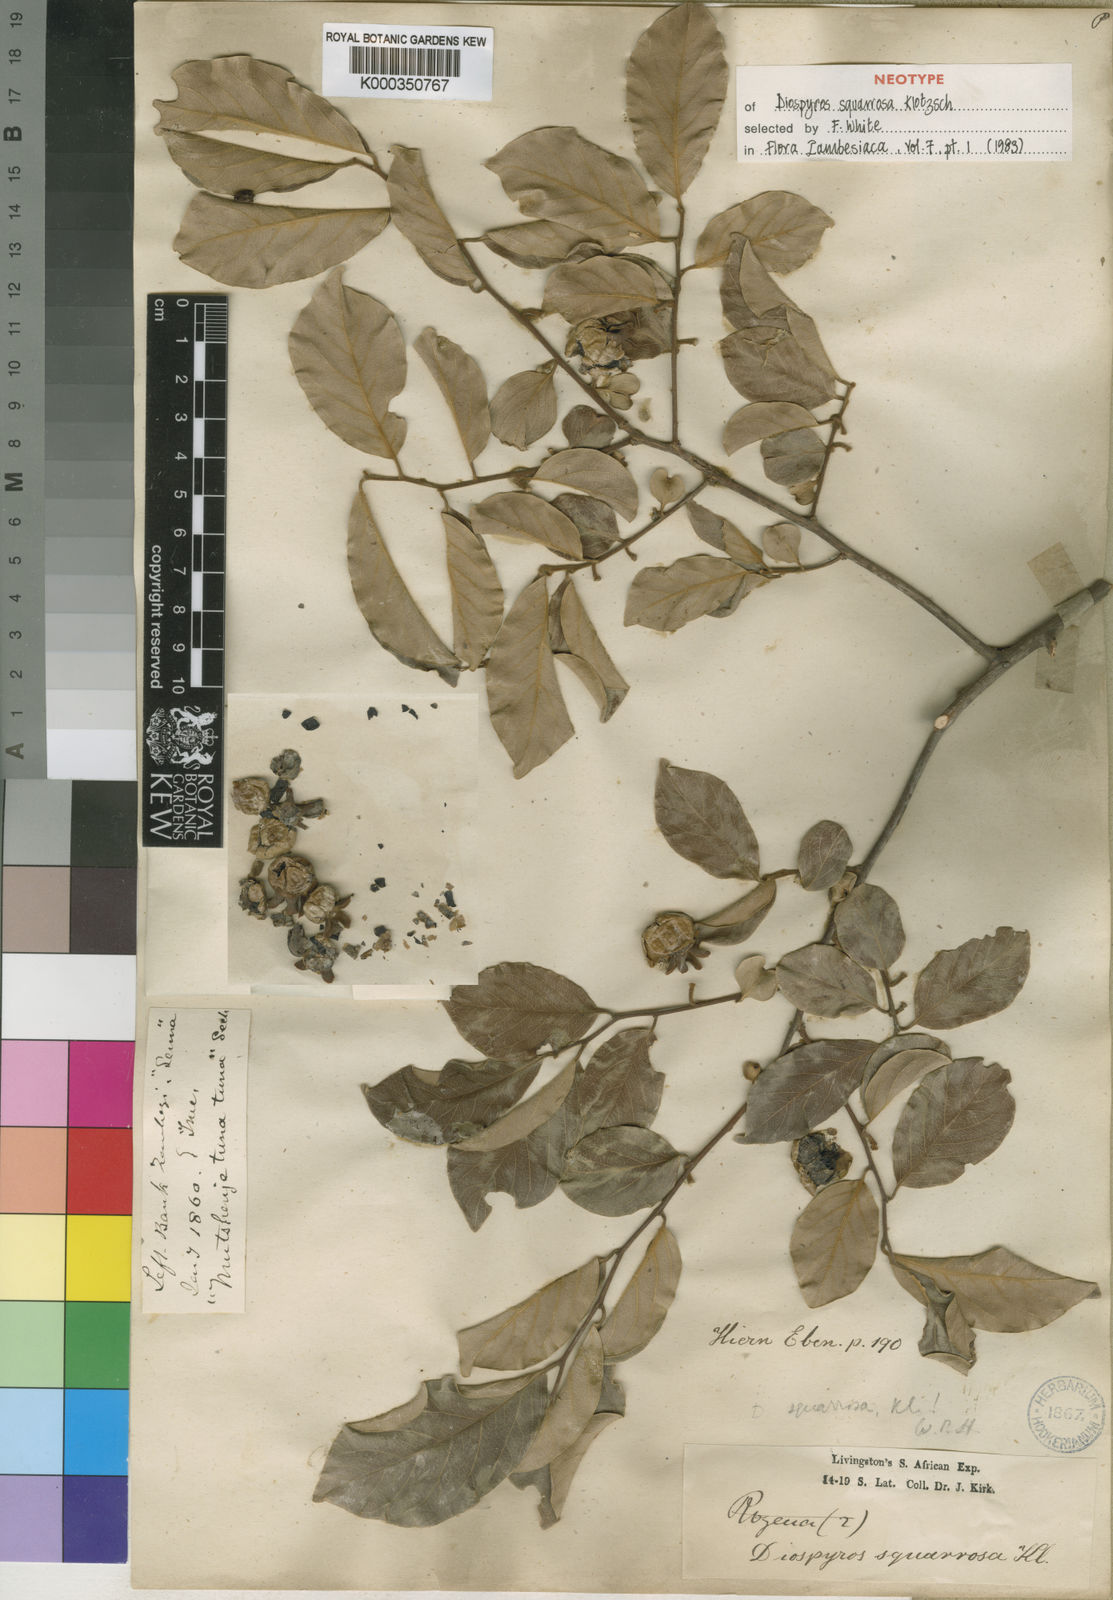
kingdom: Plantae
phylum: Tracheophyta
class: Magnoliopsida
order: Ericales
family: Ebenaceae
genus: Diospyros
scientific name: Diospyros squarrosa
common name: Rigid star berry
